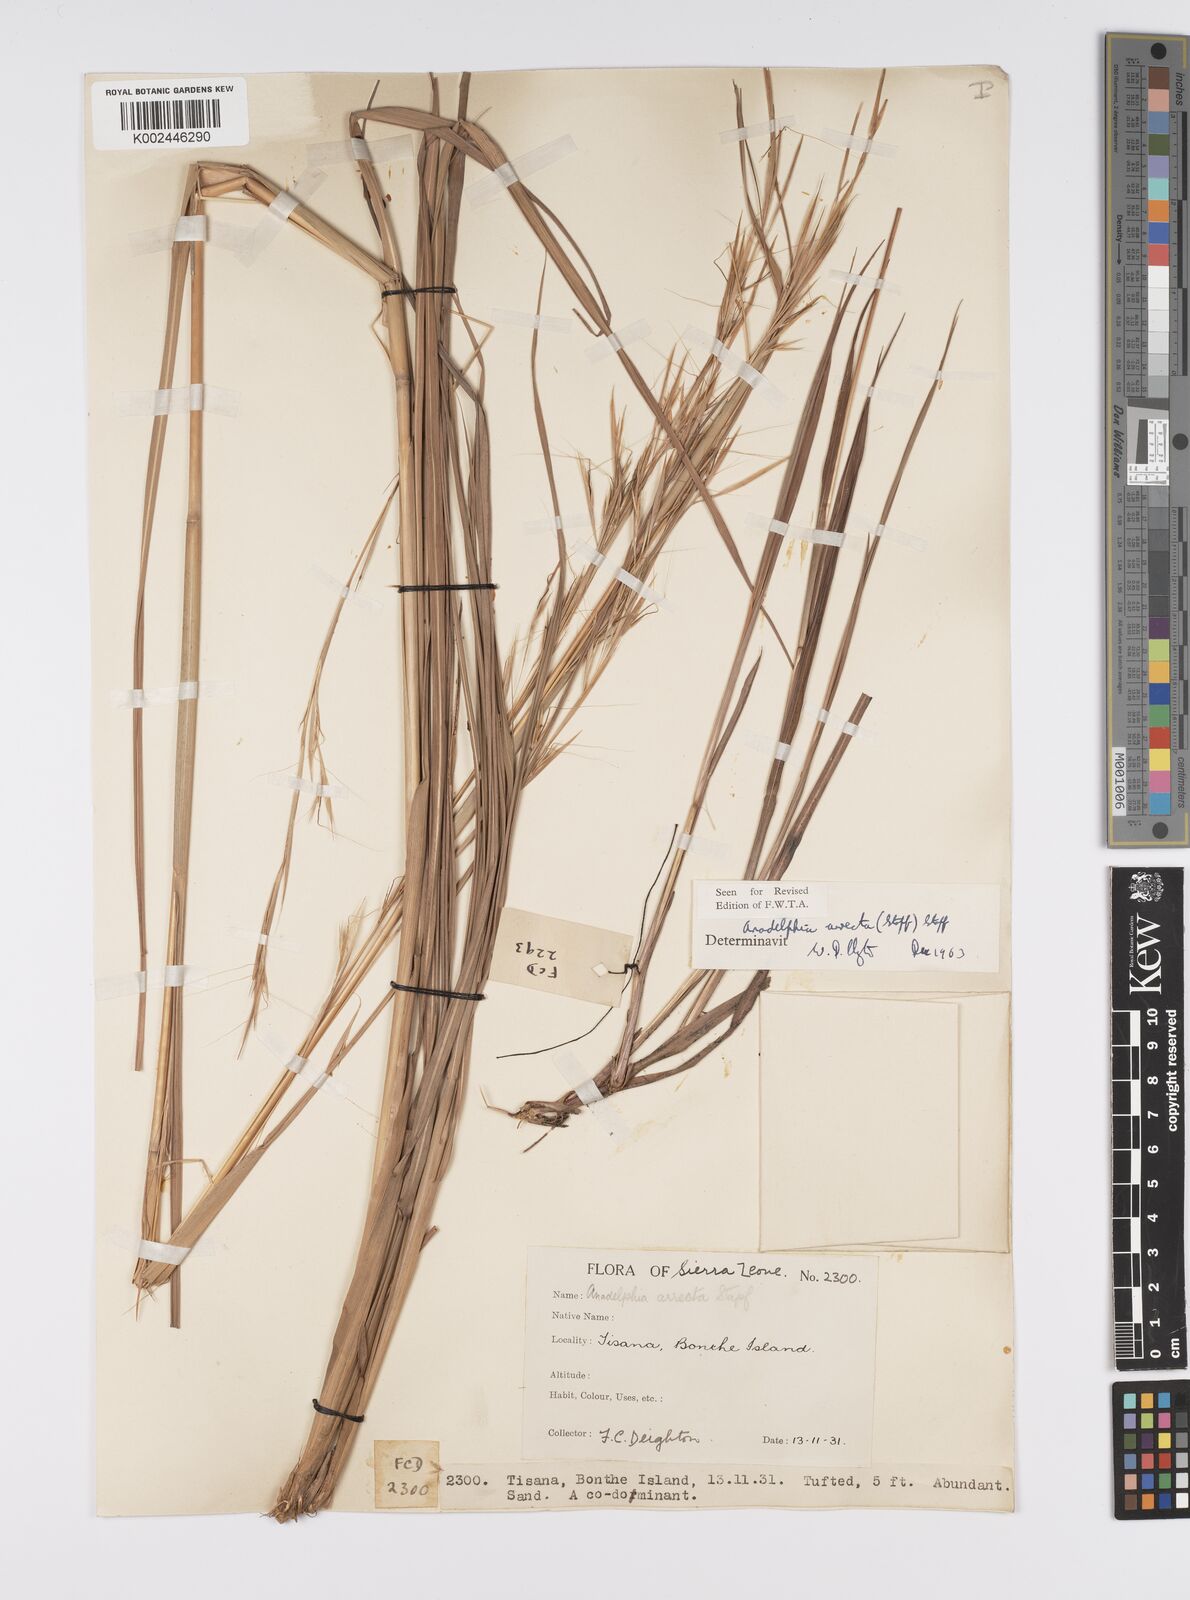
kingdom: Plantae
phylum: Tracheophyta
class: Liliopsida
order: Poales
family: Poaceae
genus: Anadelphia
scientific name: Anadelphia afzeliana
